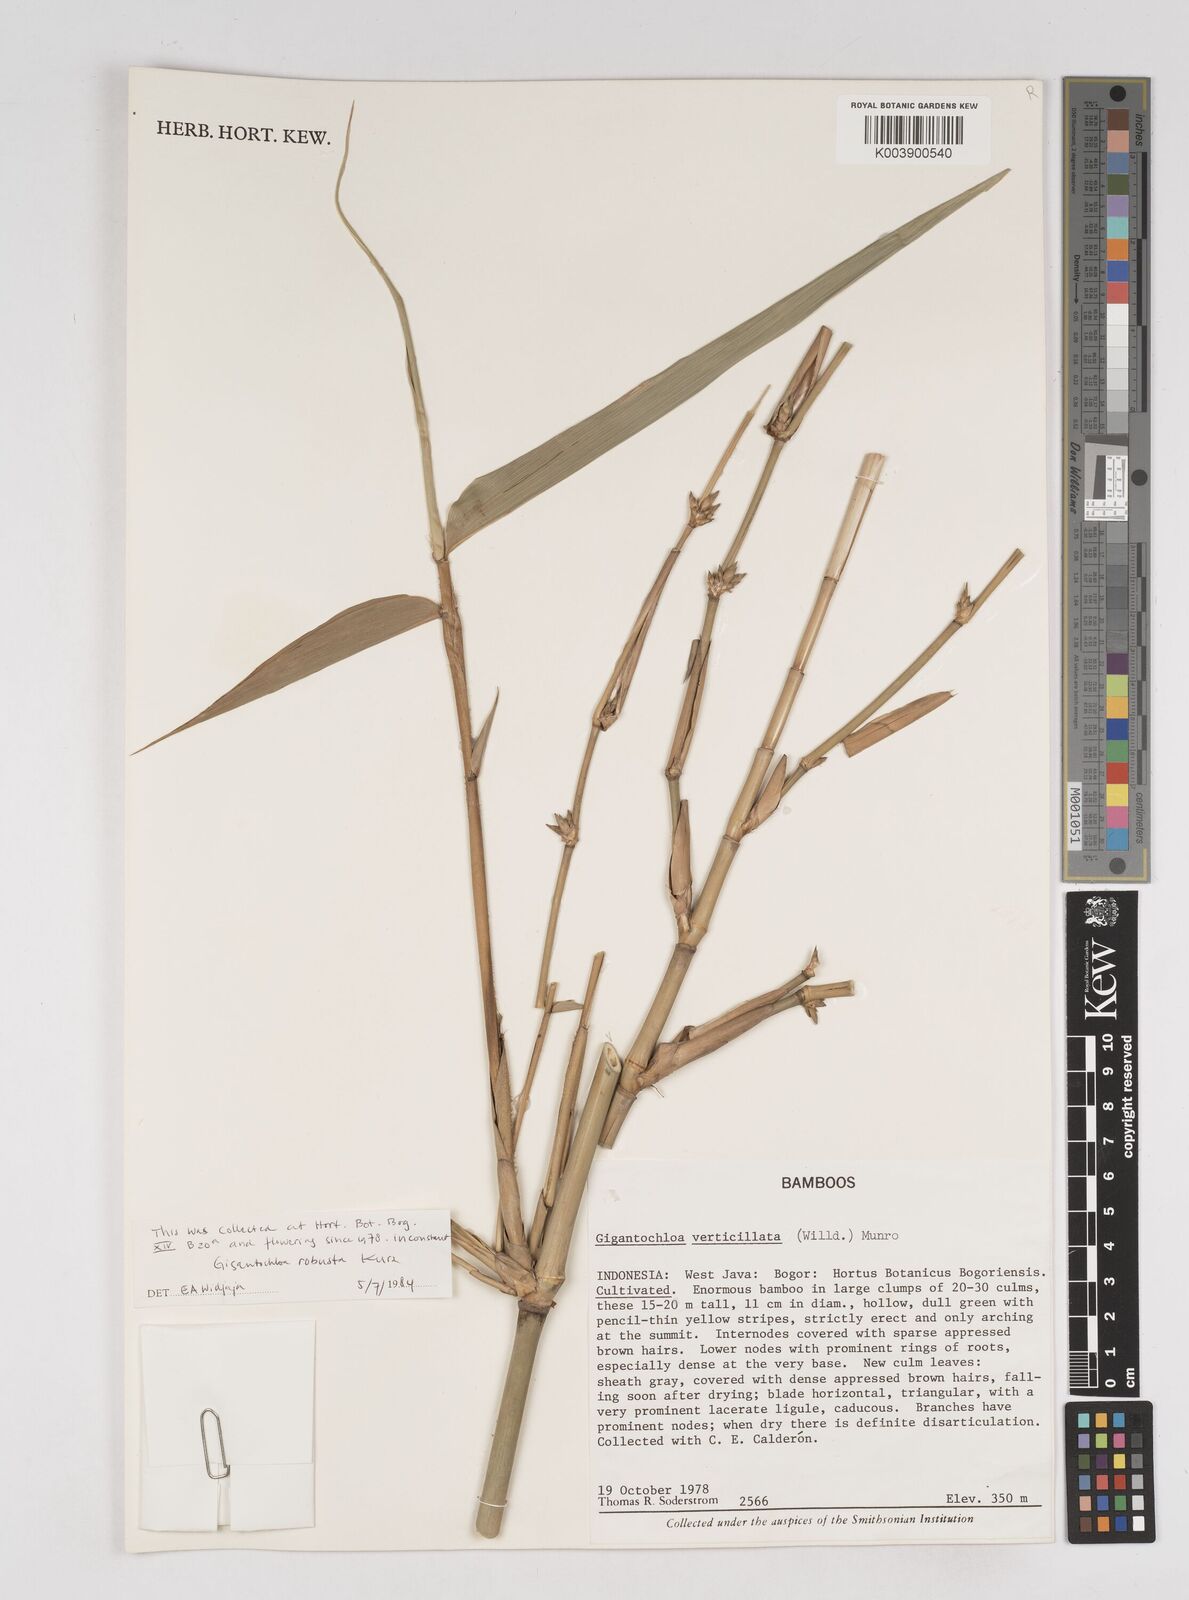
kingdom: Plantae
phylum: Tracheophyta
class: Liliopsida
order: Poales
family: Poaceae
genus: Gigantochloa
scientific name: Gigantochloa robusta
